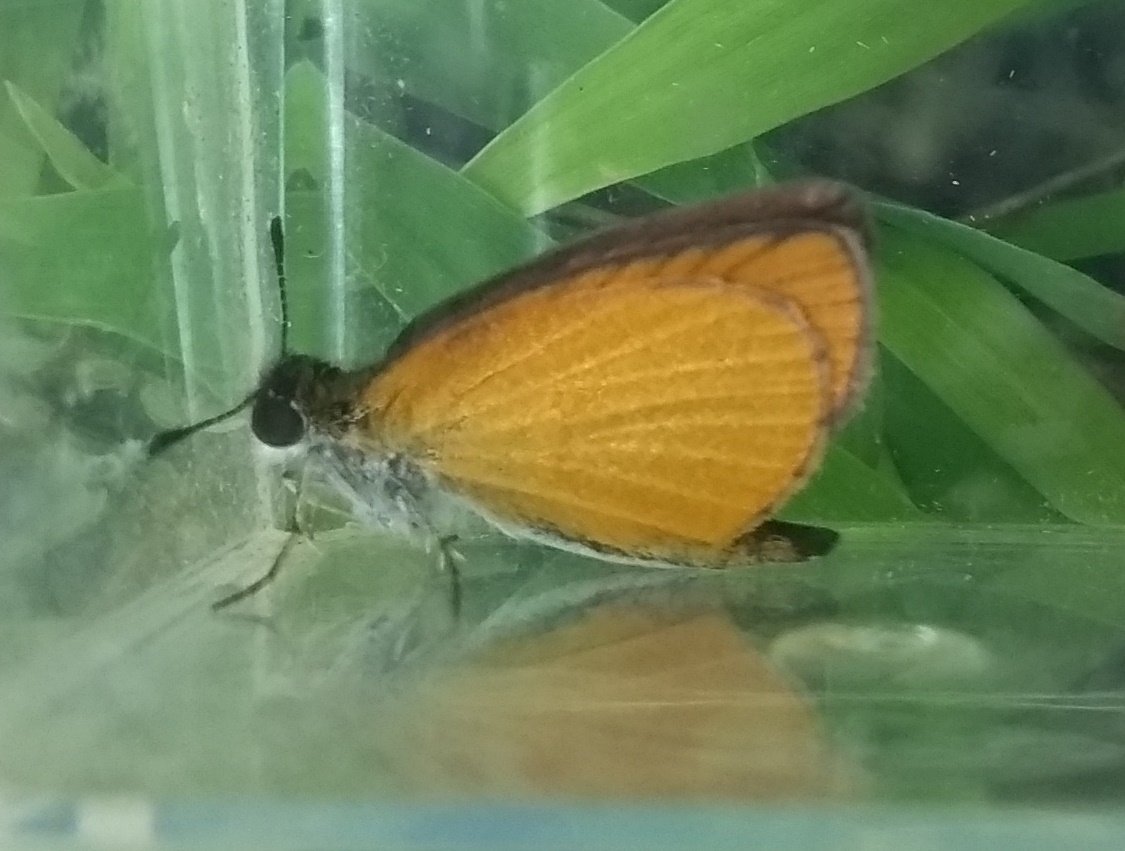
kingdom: Animalia
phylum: Arthropoda
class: Insecta
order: Lepidoptera
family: Hesperiidae
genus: Ancyloxypha
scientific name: Ancyloxypha numitor
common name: Least Skipper
